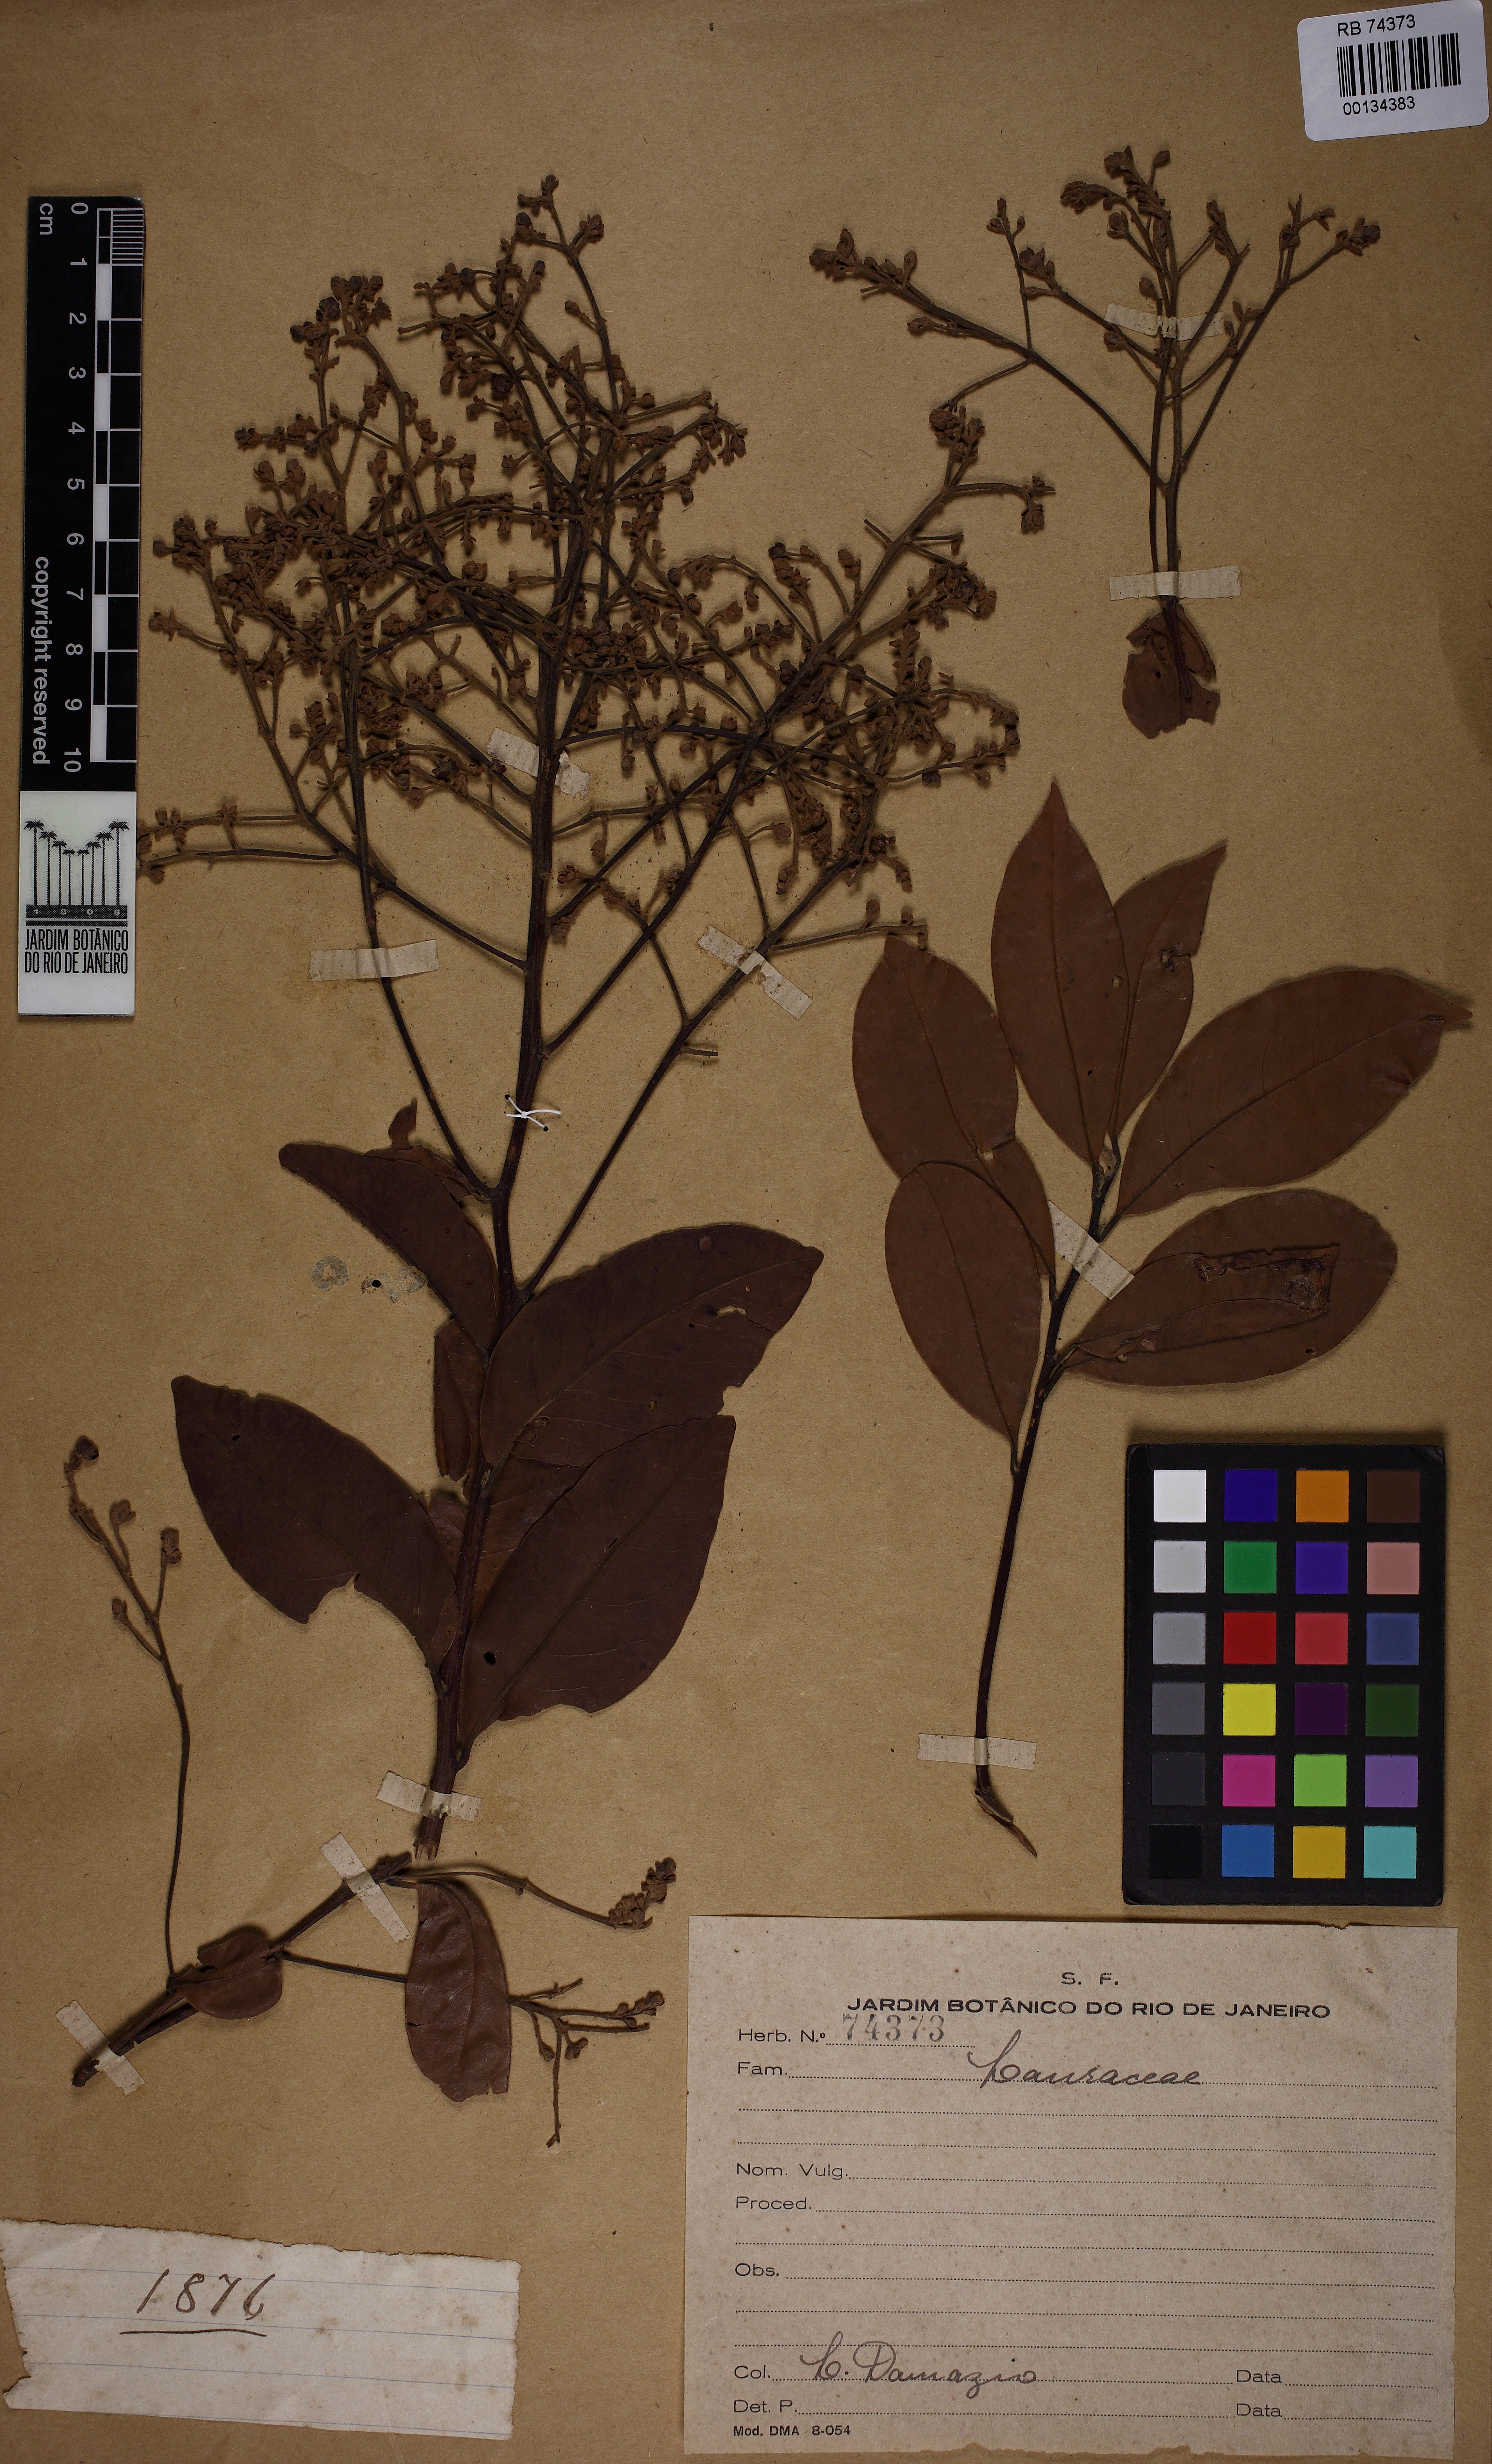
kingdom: Plantae
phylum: Tracheophyta
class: Magnoliopsida
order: Laurales
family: Lauraceae
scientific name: Lauraceae
